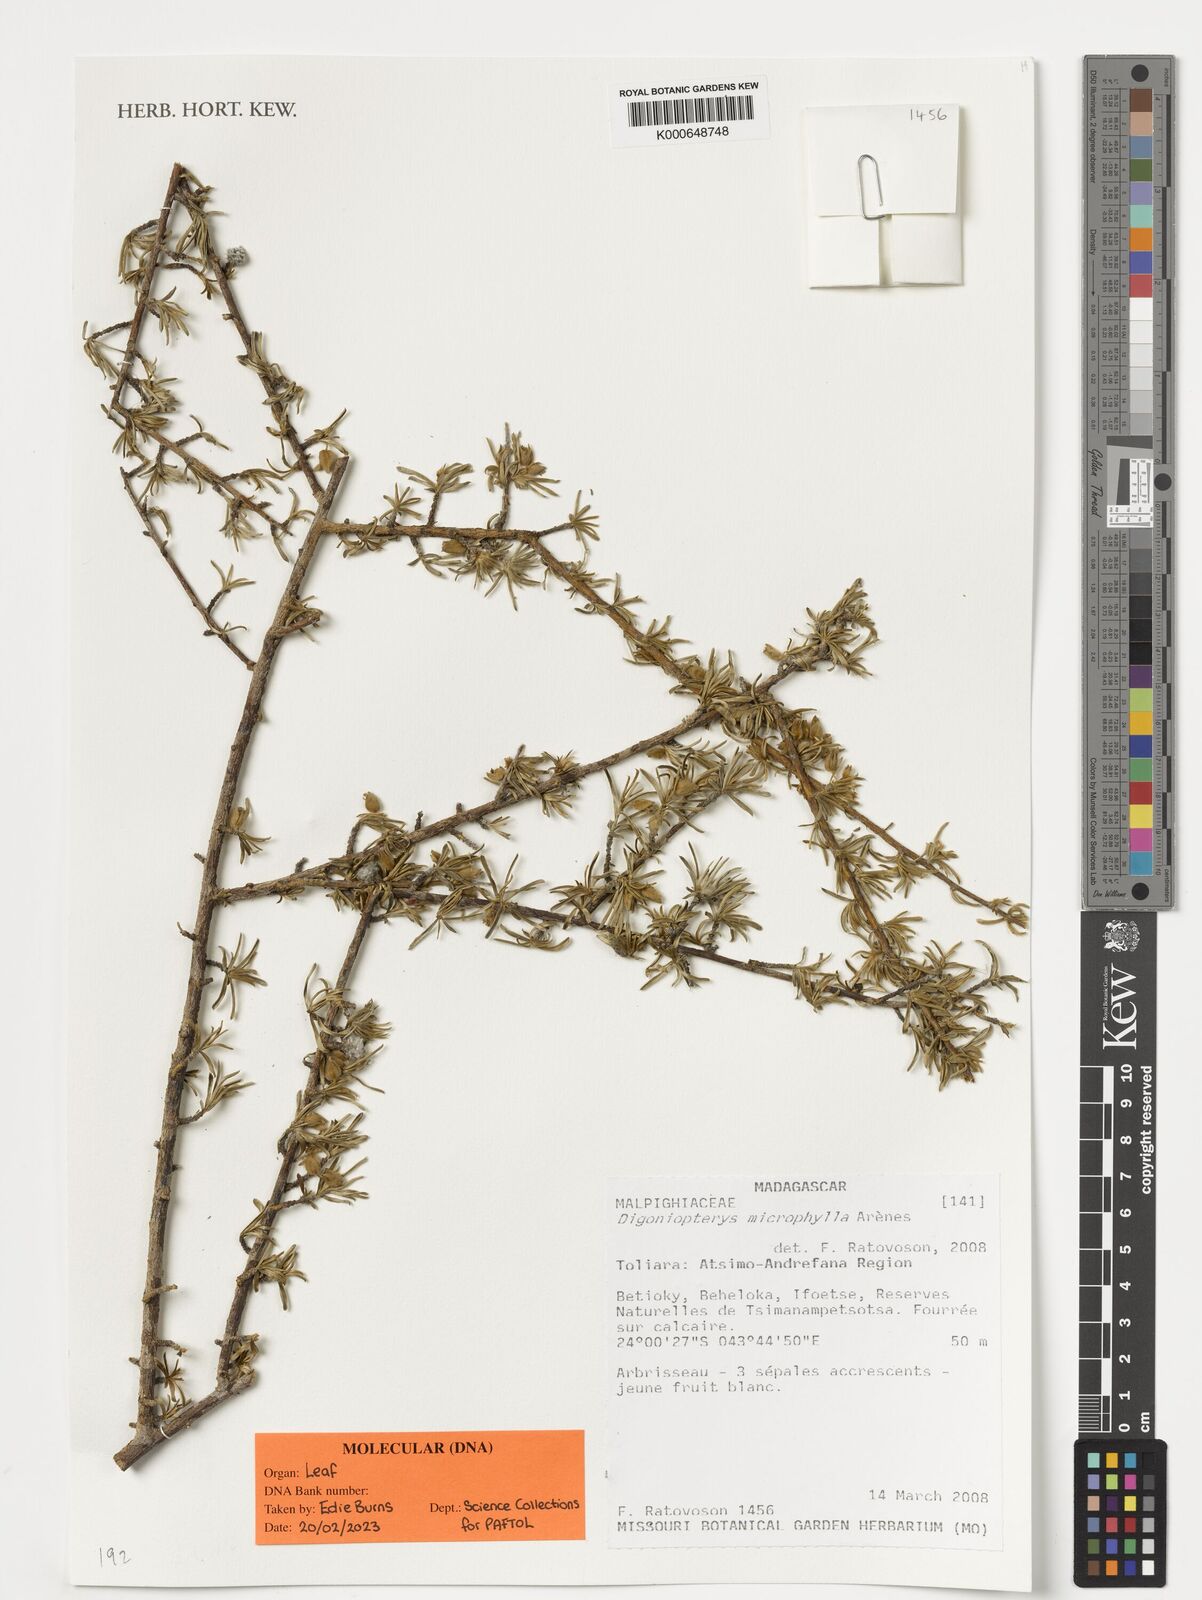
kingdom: Plantae
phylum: Tracheophyta
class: Magnoliopsida
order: Malpighiales
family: Malpighiaceae
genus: Digoniopterys
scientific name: Digoniopterys microphylla
